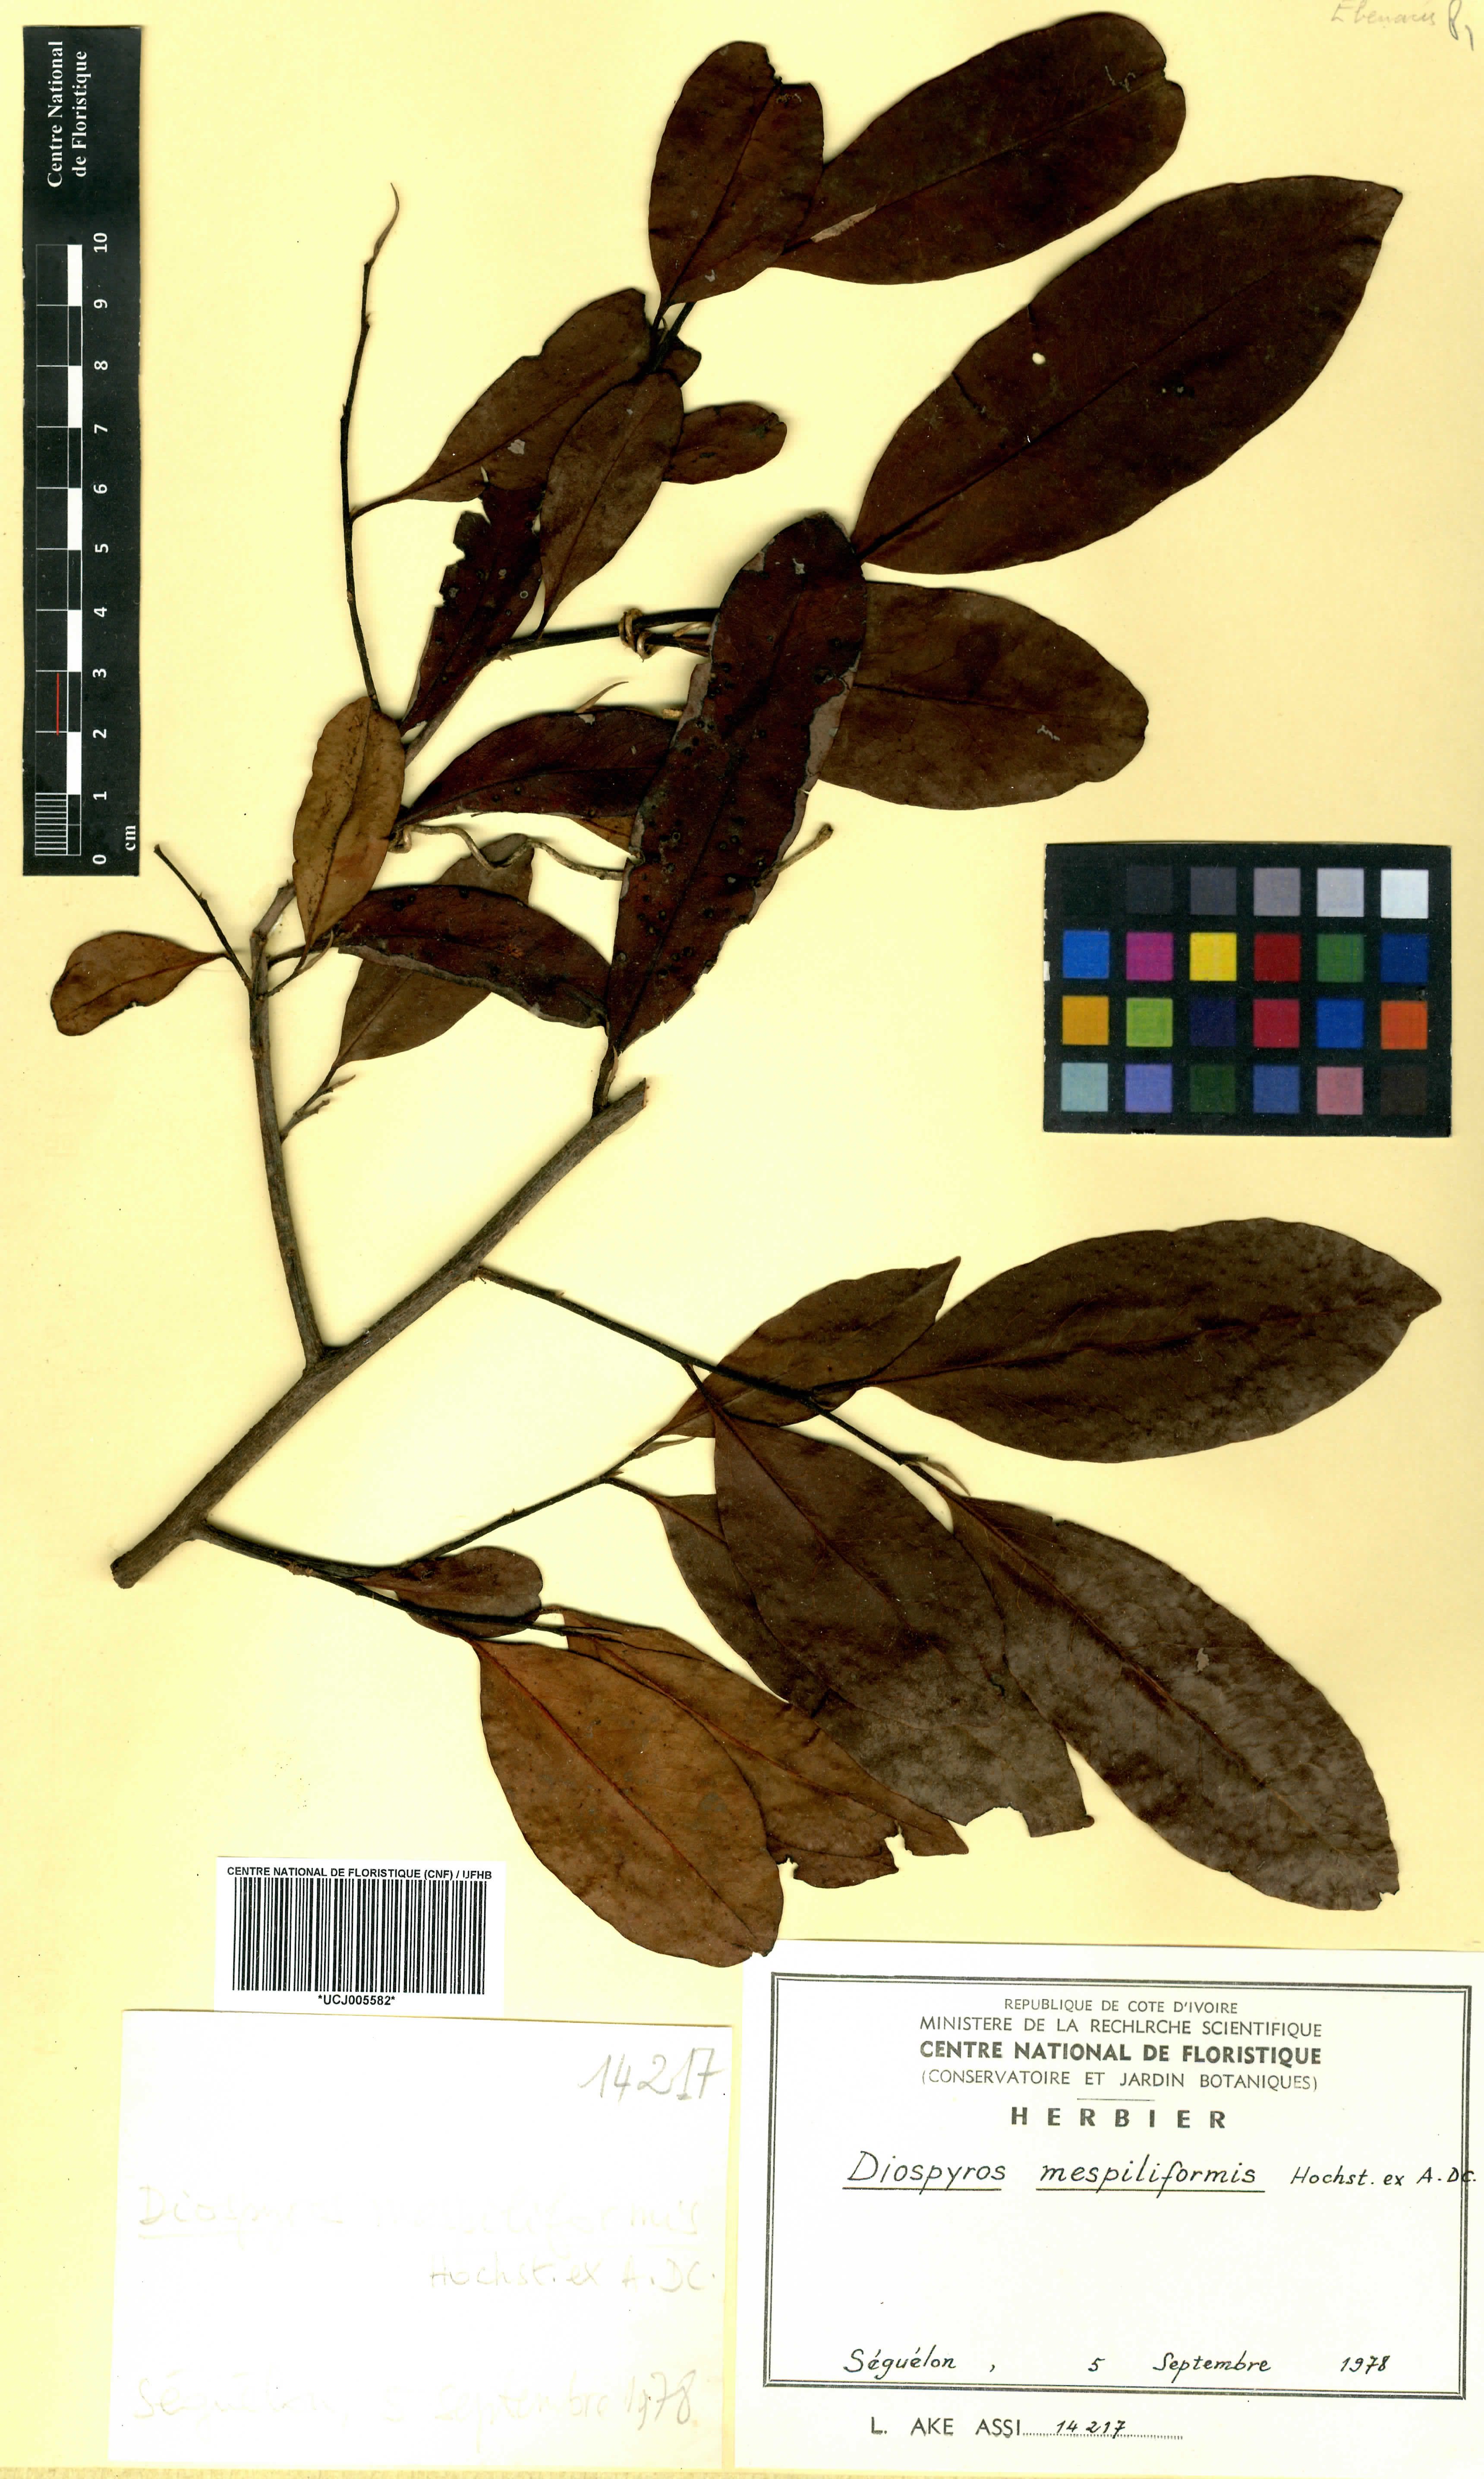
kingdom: Plantae
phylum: Tracheophyta
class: Magnoliopsida
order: Ericales
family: Ebenaceae
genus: Diospyros
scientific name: Diospyros mespiliformis
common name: Ebony diospyros
